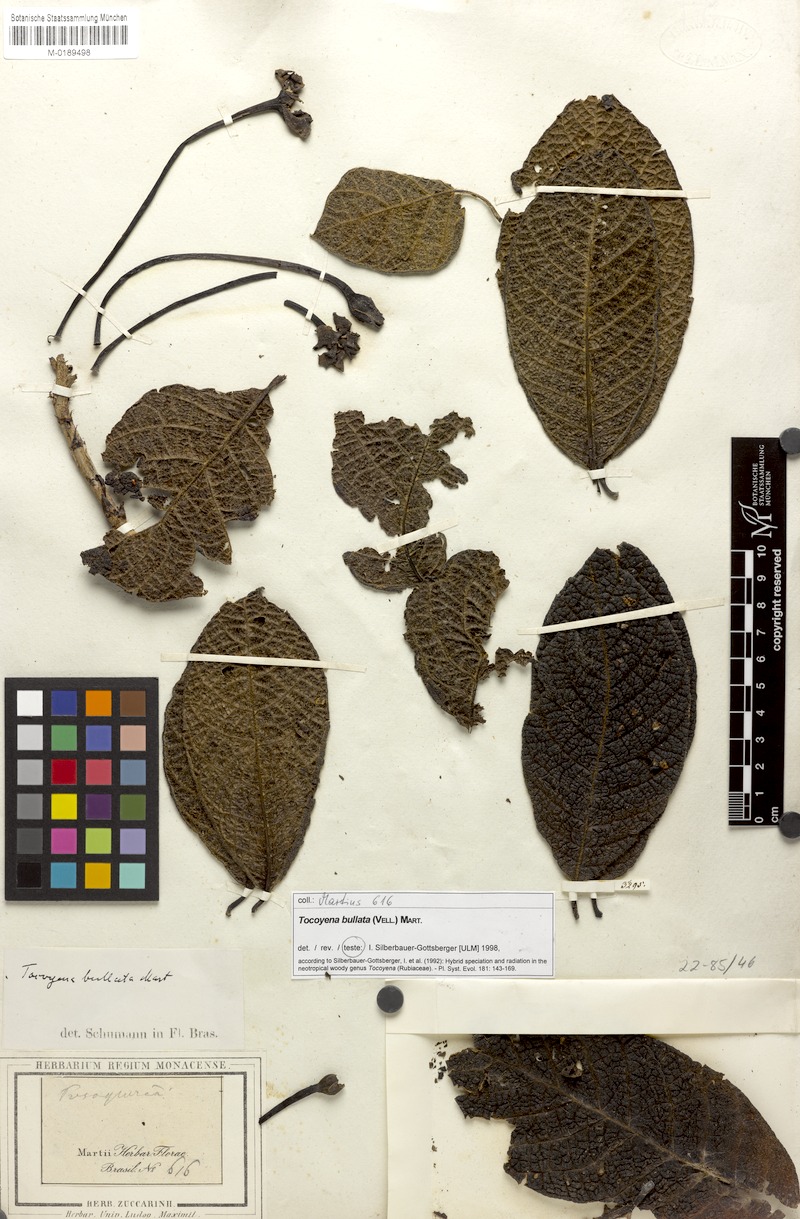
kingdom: Plantae
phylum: Tracheophyta
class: Magnoliopsida
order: Gentianales
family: Rubiaceae
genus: Tocoyena
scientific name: Tocoyena bullata
